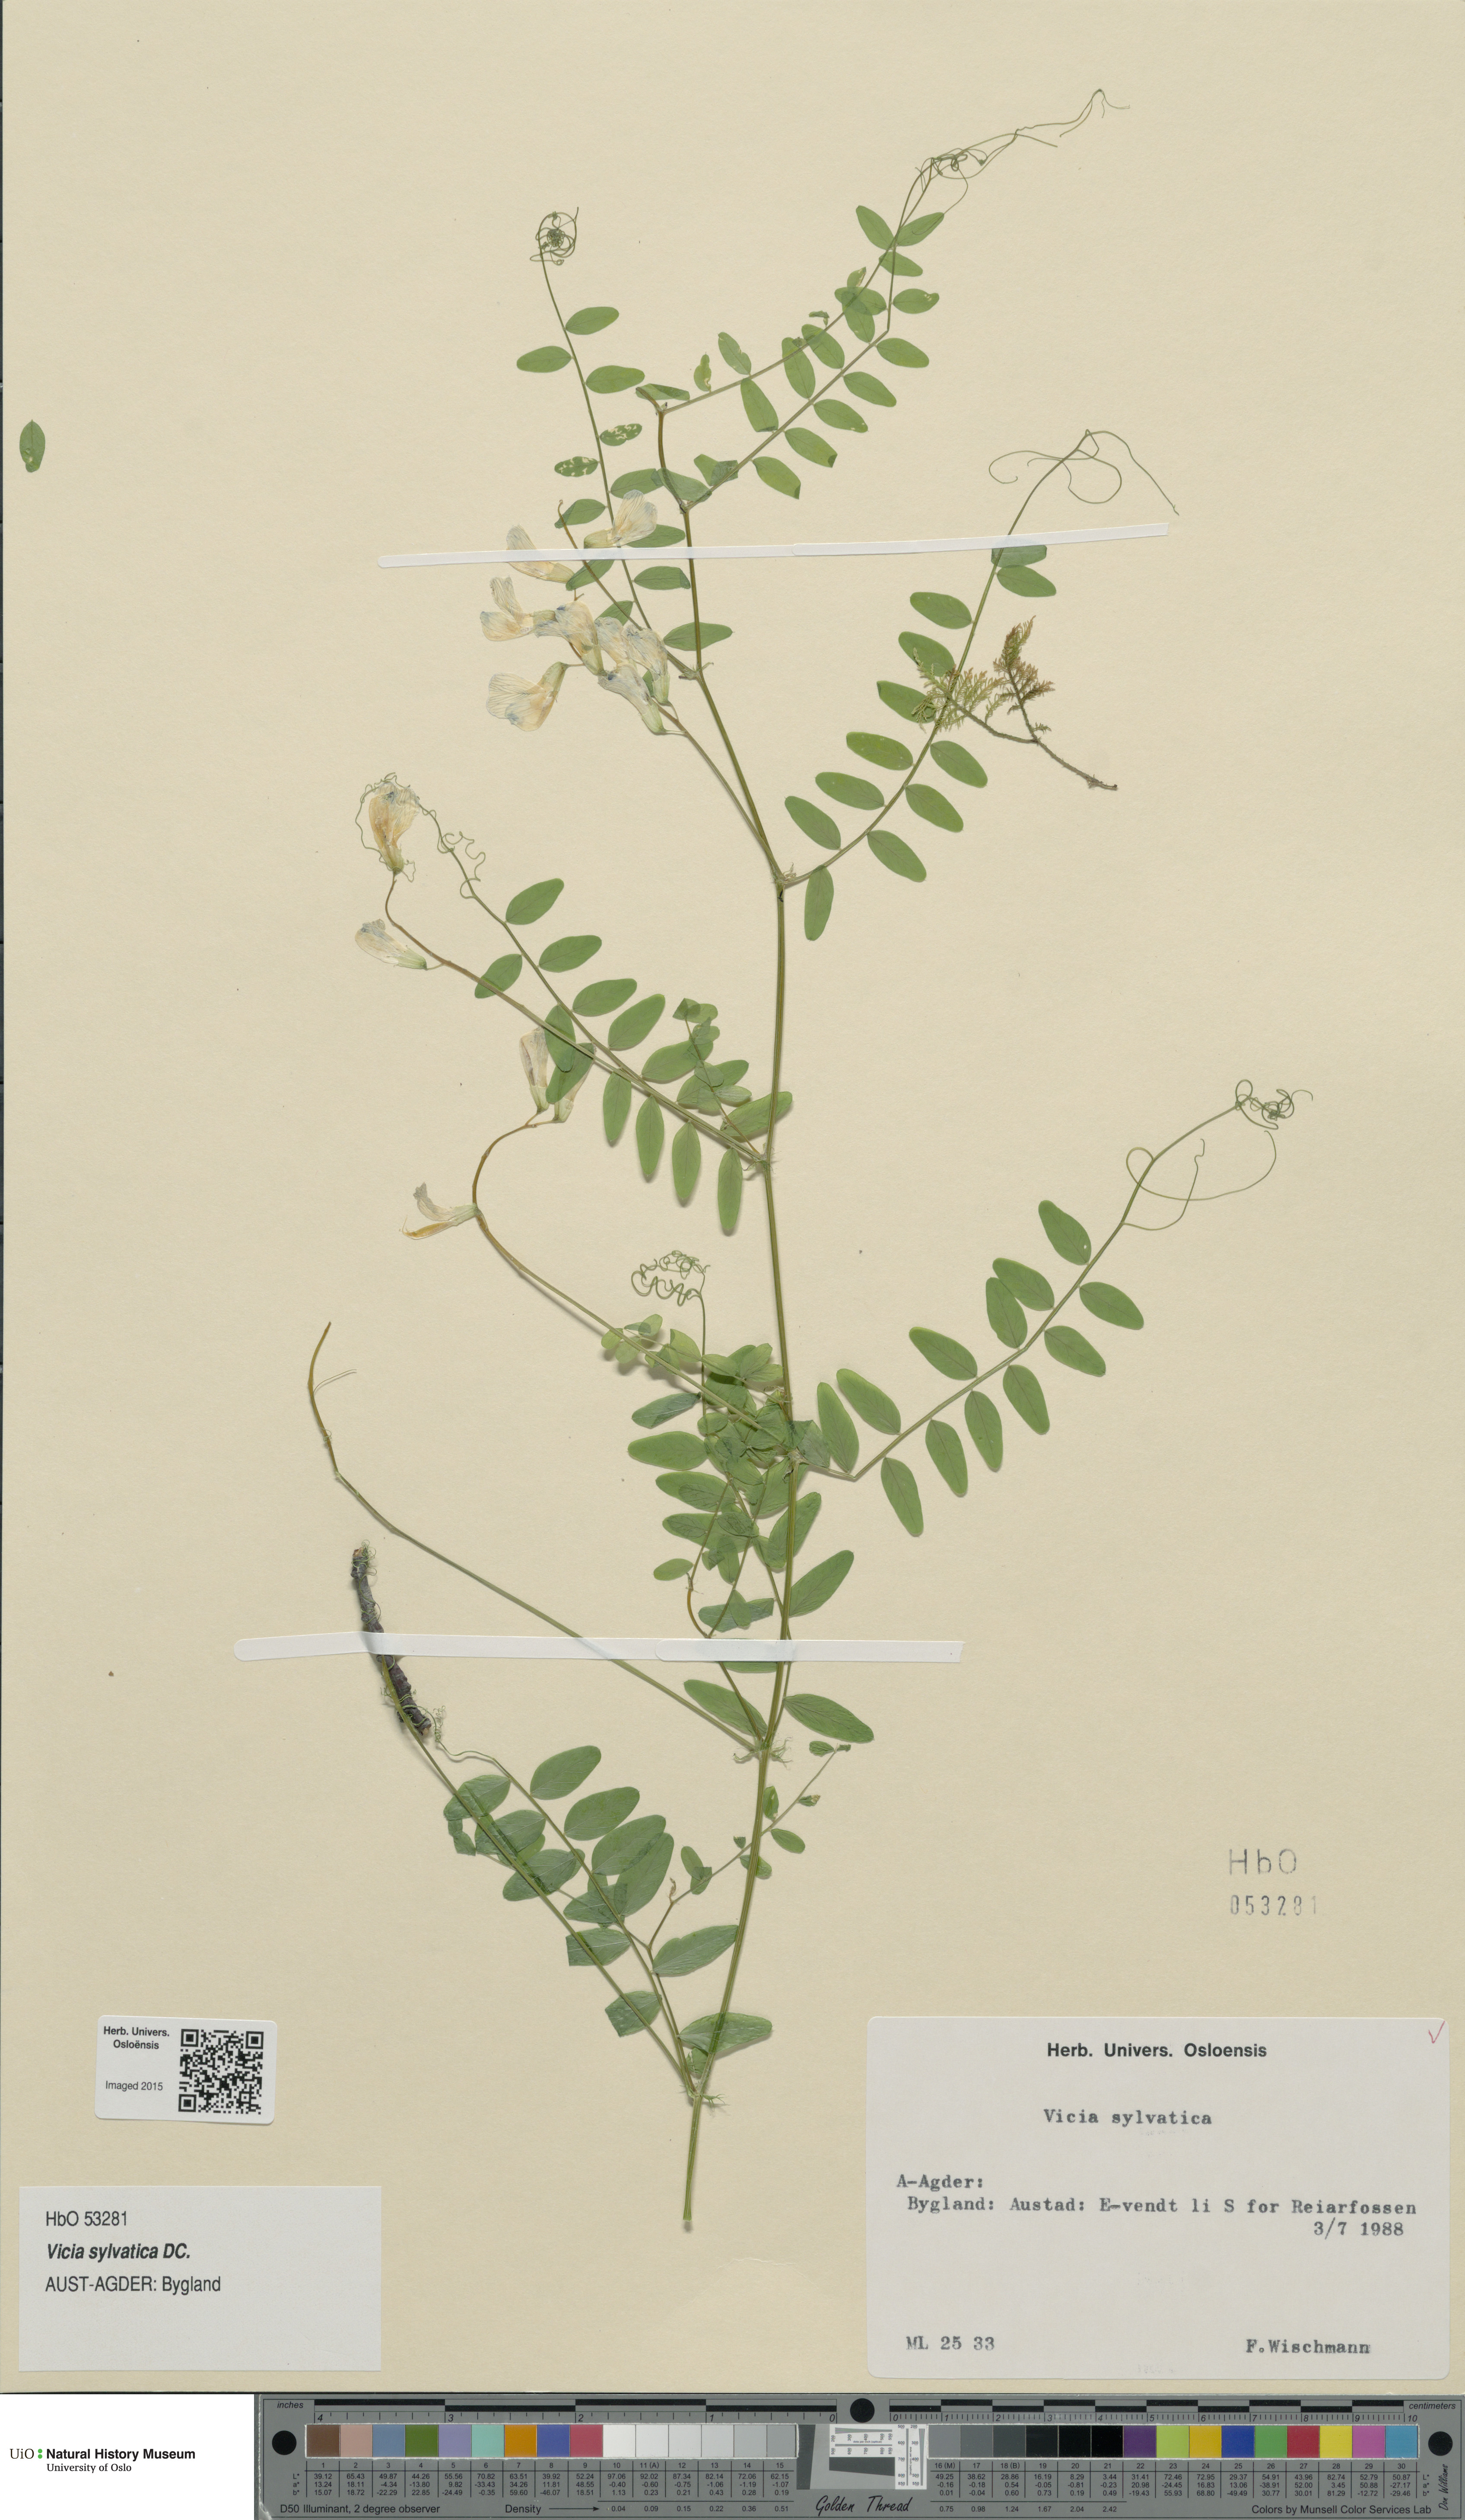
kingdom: Plantae
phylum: Tracheophyta
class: Magnoliopsida
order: Fabales
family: Fabaceae
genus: Vicia
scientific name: Vicia sylvatica
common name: Wood vetch
